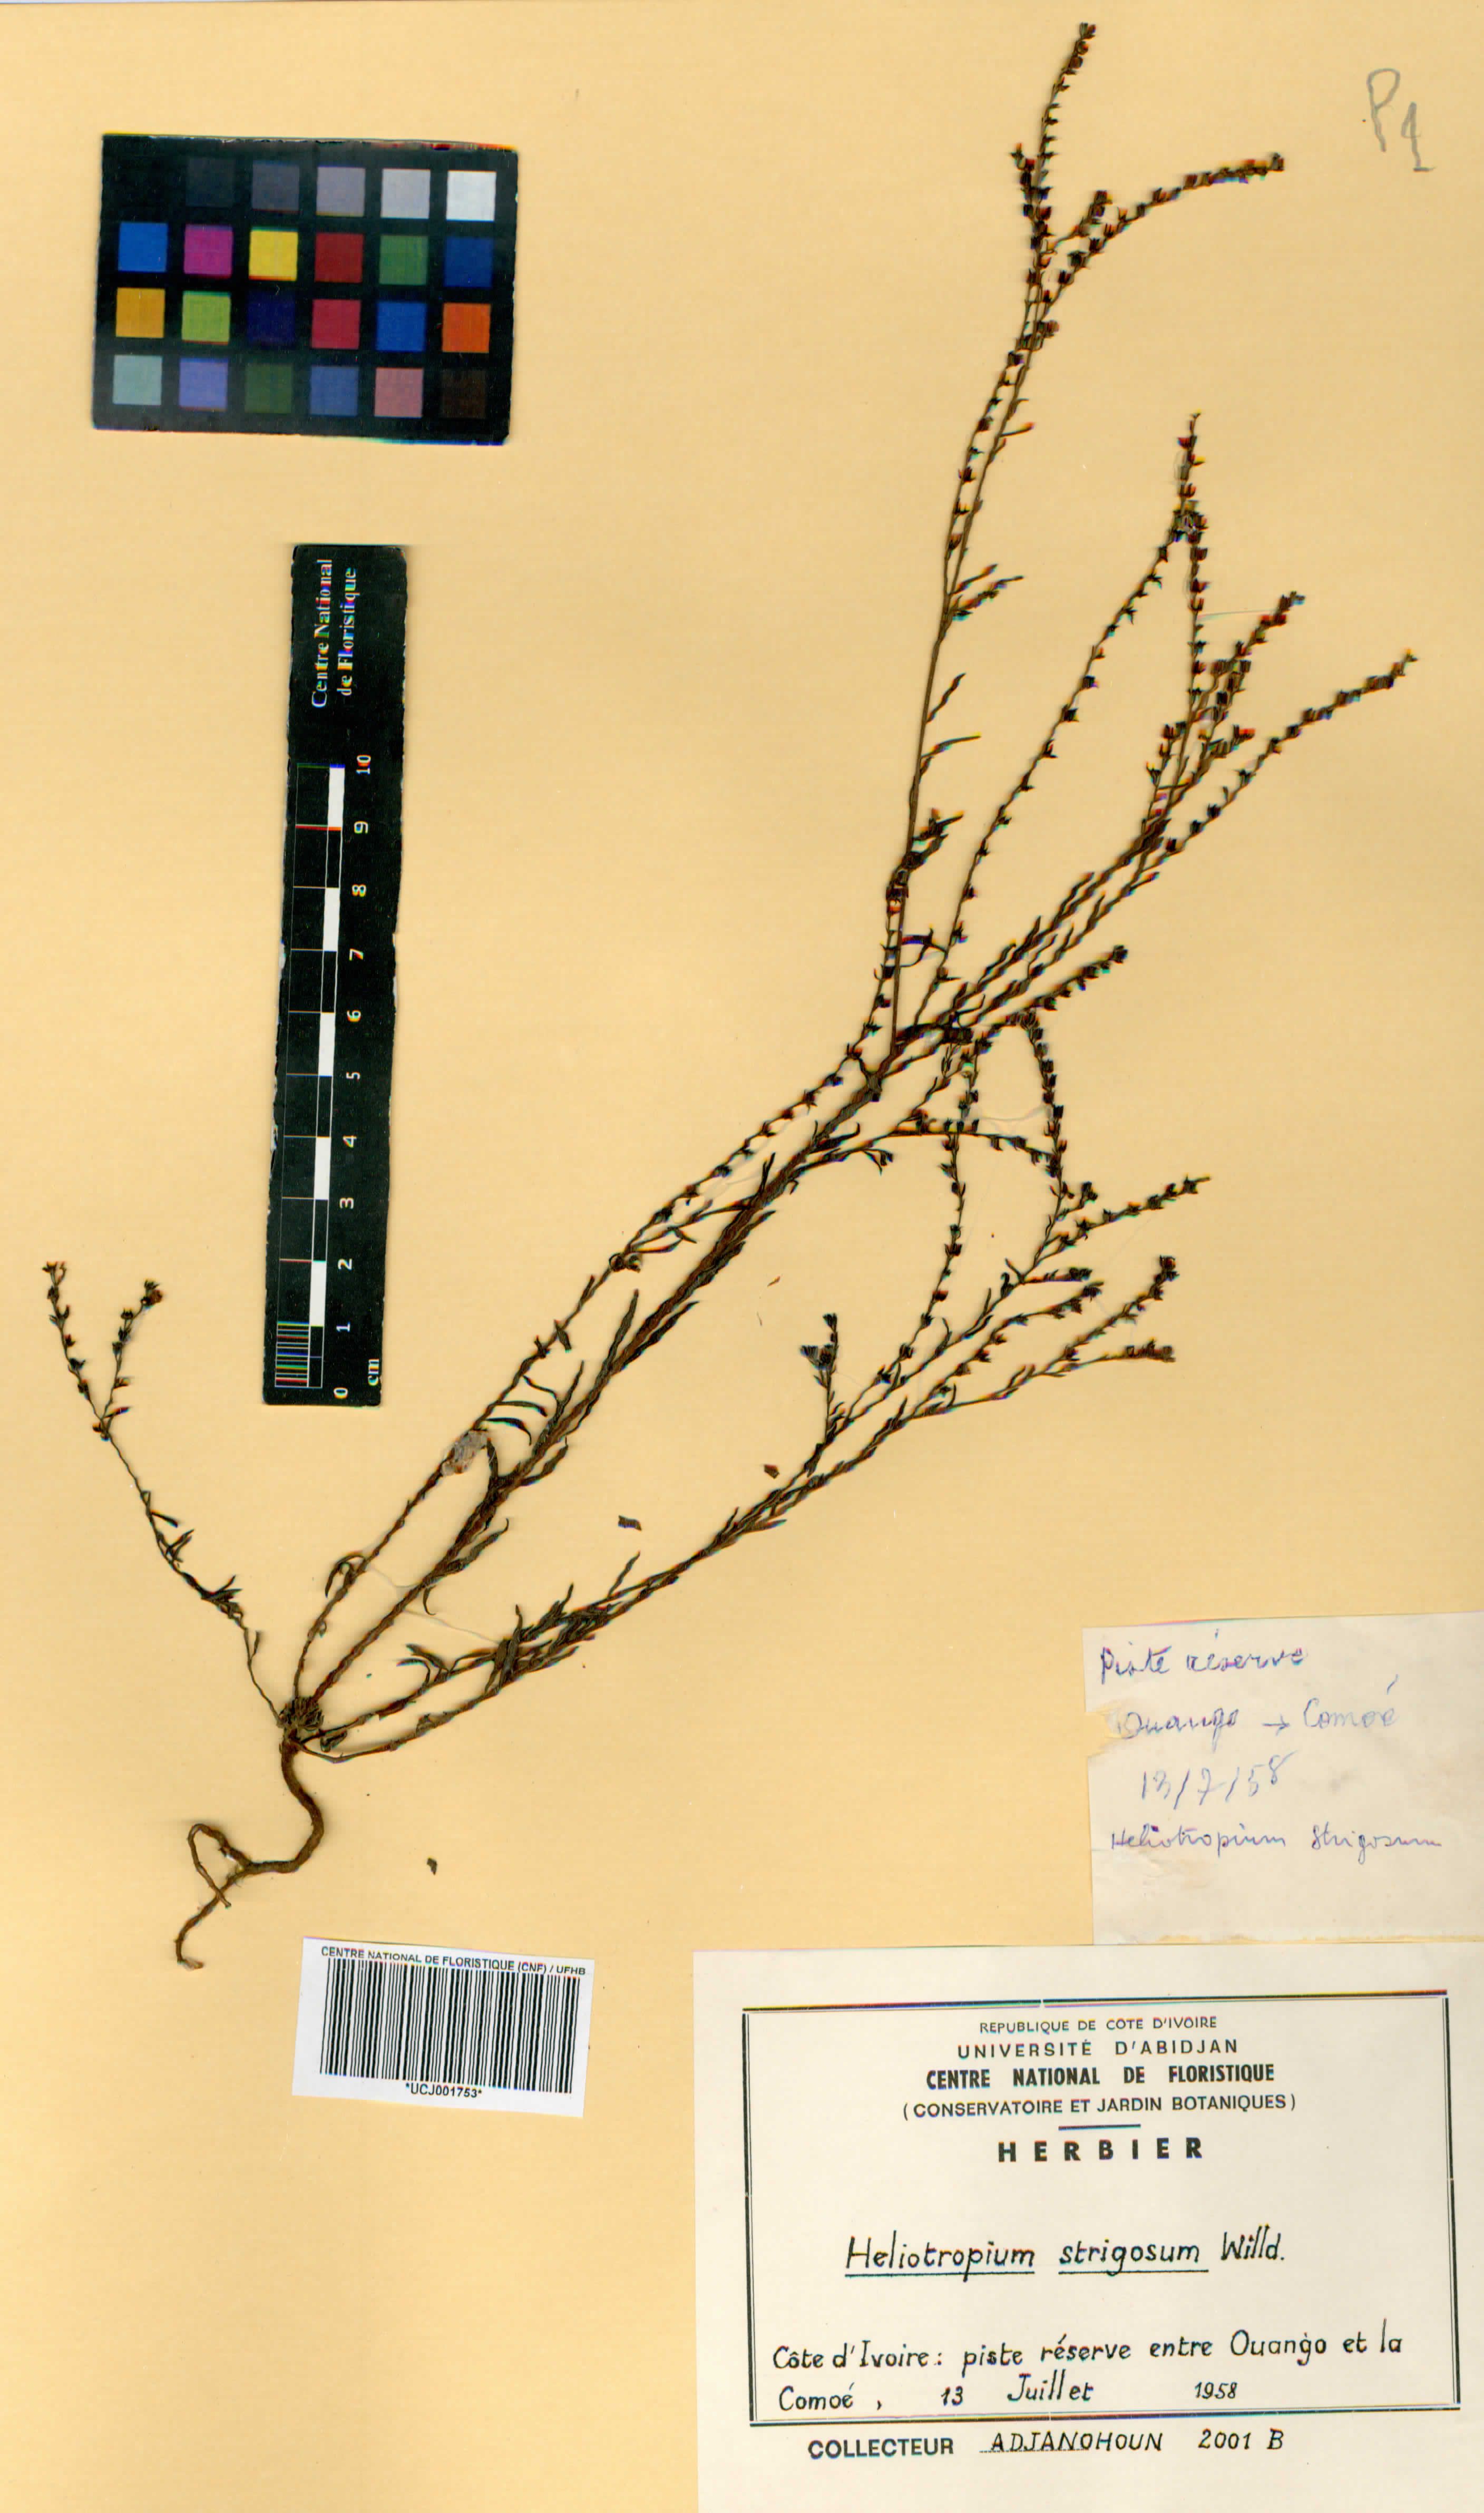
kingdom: Plantae
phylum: Tracheophyta
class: Magnoliopsida
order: Boraginales
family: Heliotropiaceae
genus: Euploca
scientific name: Euploca strigosa
